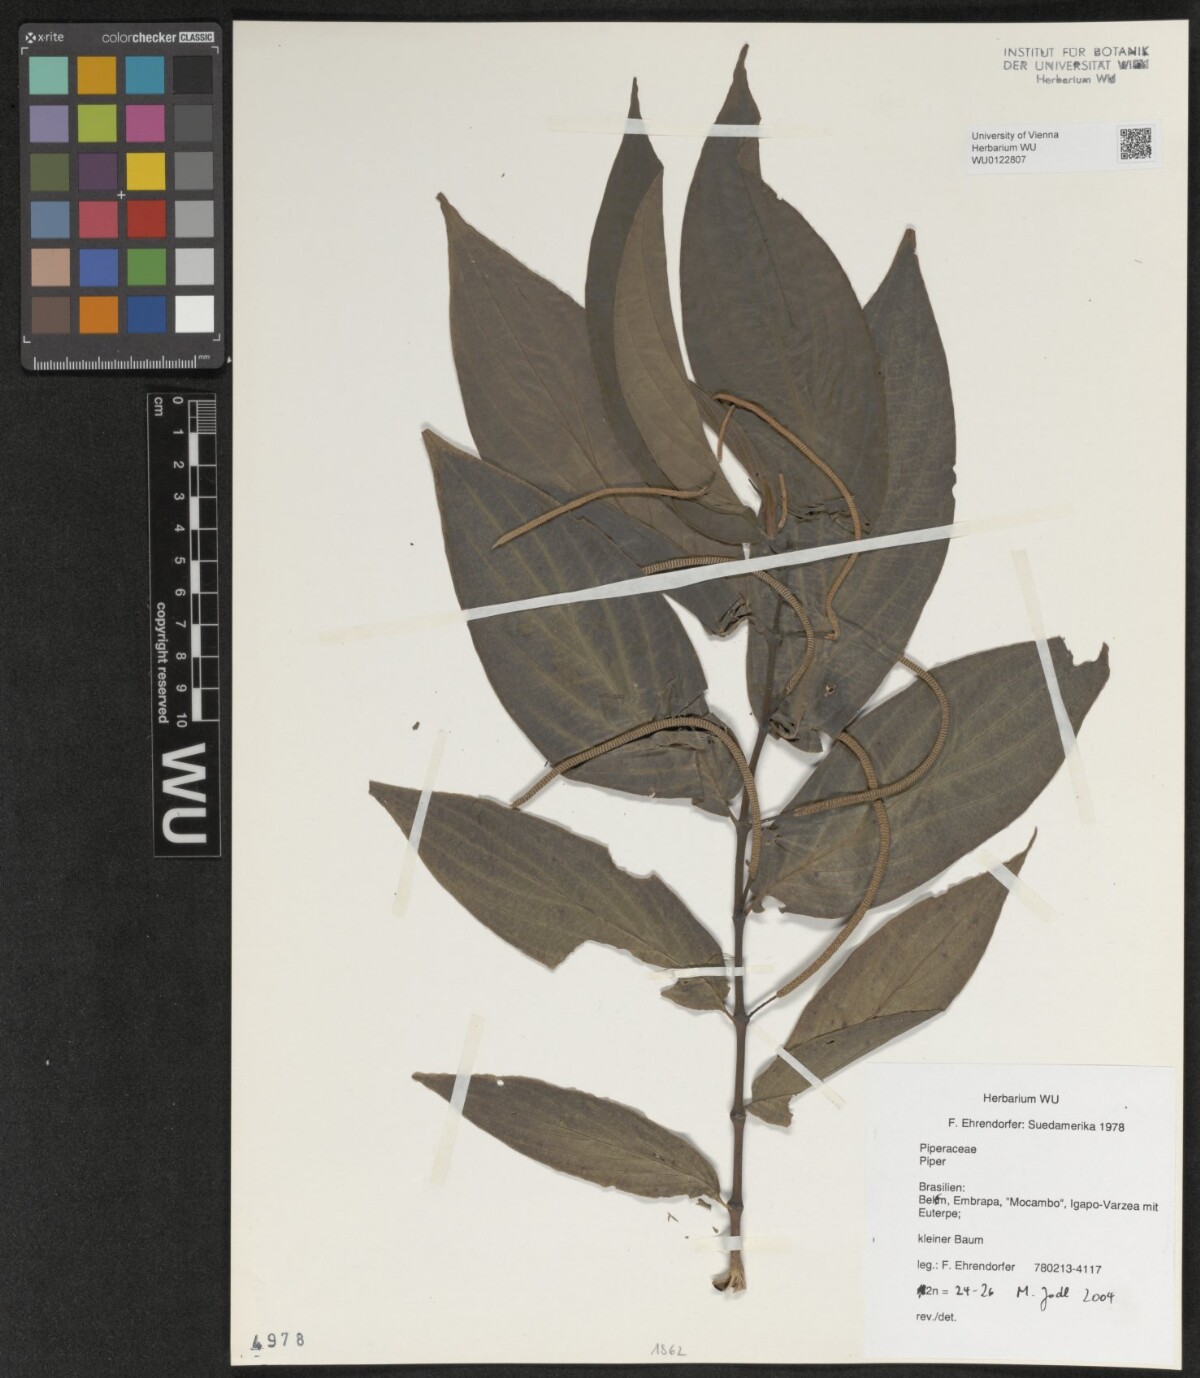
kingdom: Plantae
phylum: Tracheophyta
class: Magnoliopsida
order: Piperales
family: Piperaceae
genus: Piper
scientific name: Piper
